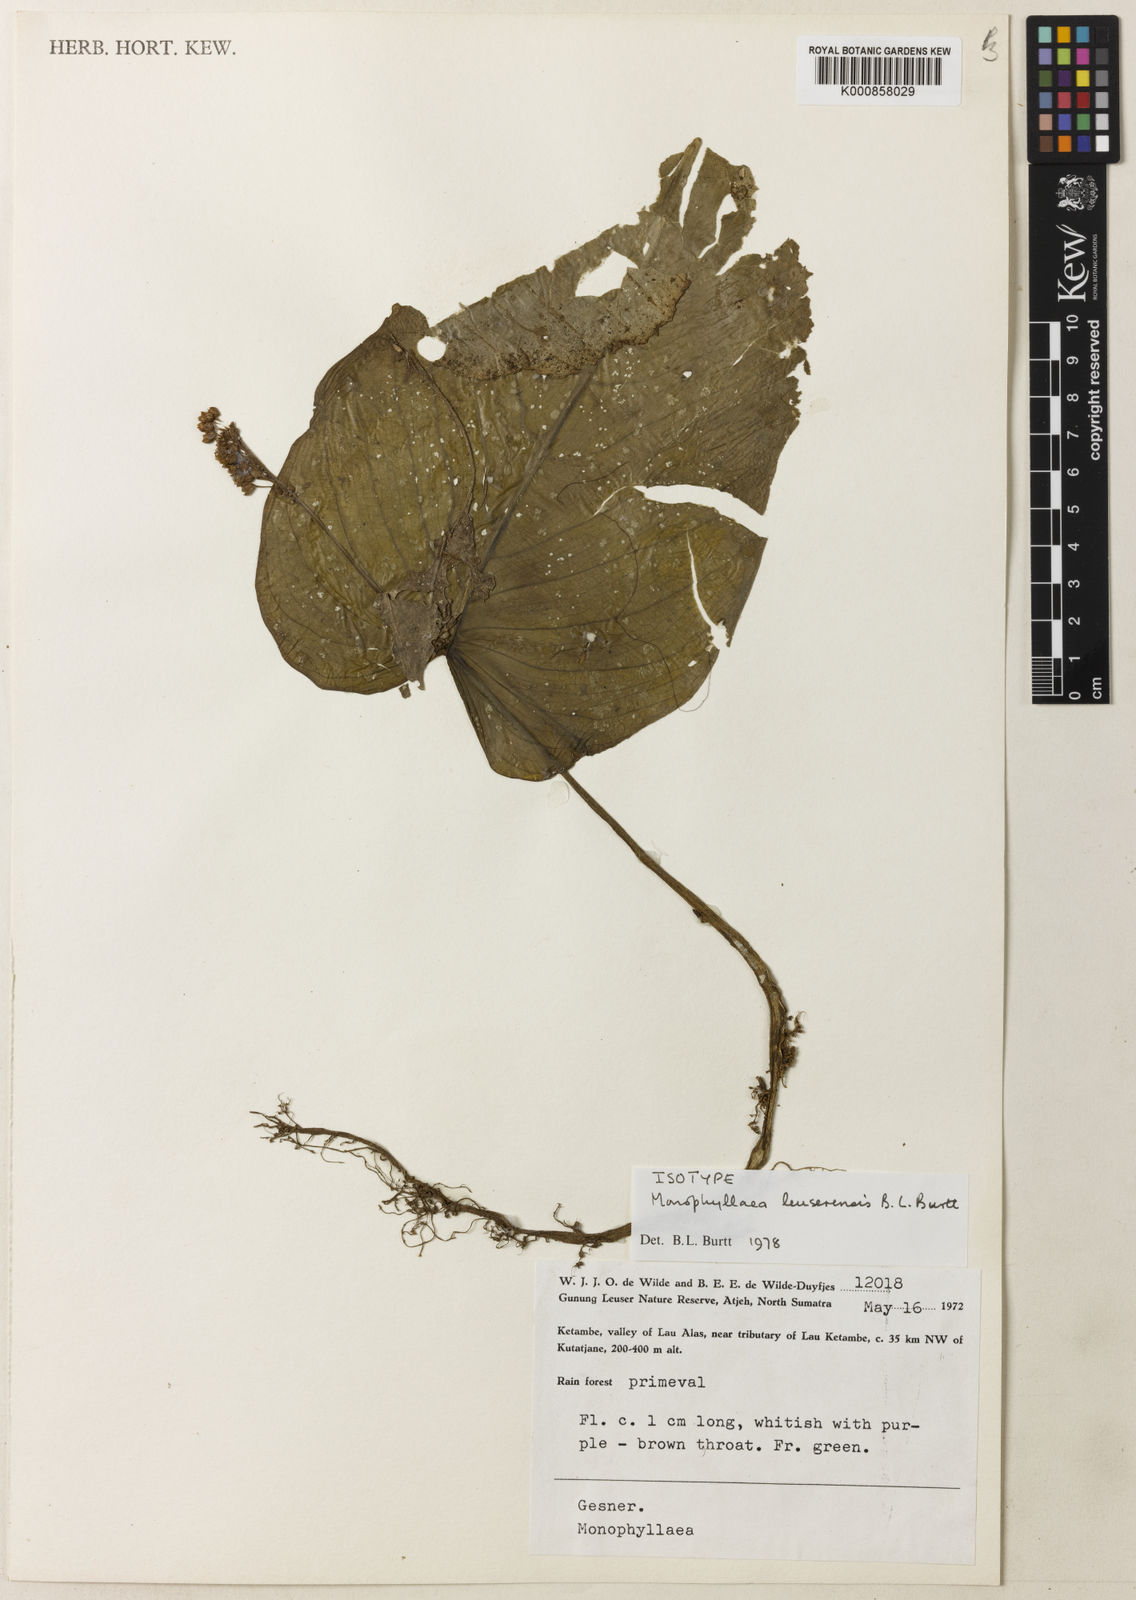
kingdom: Plantae
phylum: Tracheophyta
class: Magnoliopsida
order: Lamiales
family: Gesneriaceae
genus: Monophyllaea
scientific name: Monophyllaea leuserensis
